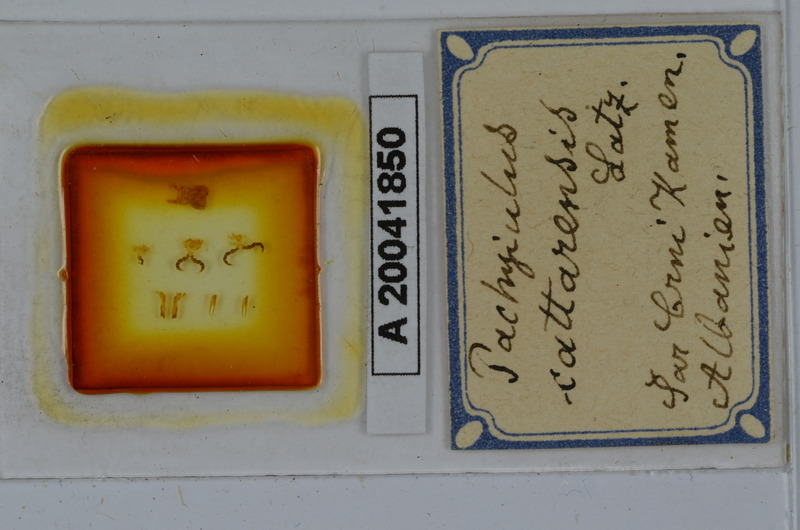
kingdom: Animalia
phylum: Arthropoda
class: Diplopoda
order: Julida
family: Julidae
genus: Pachyiulus
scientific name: Pachyiulus cattarensis
